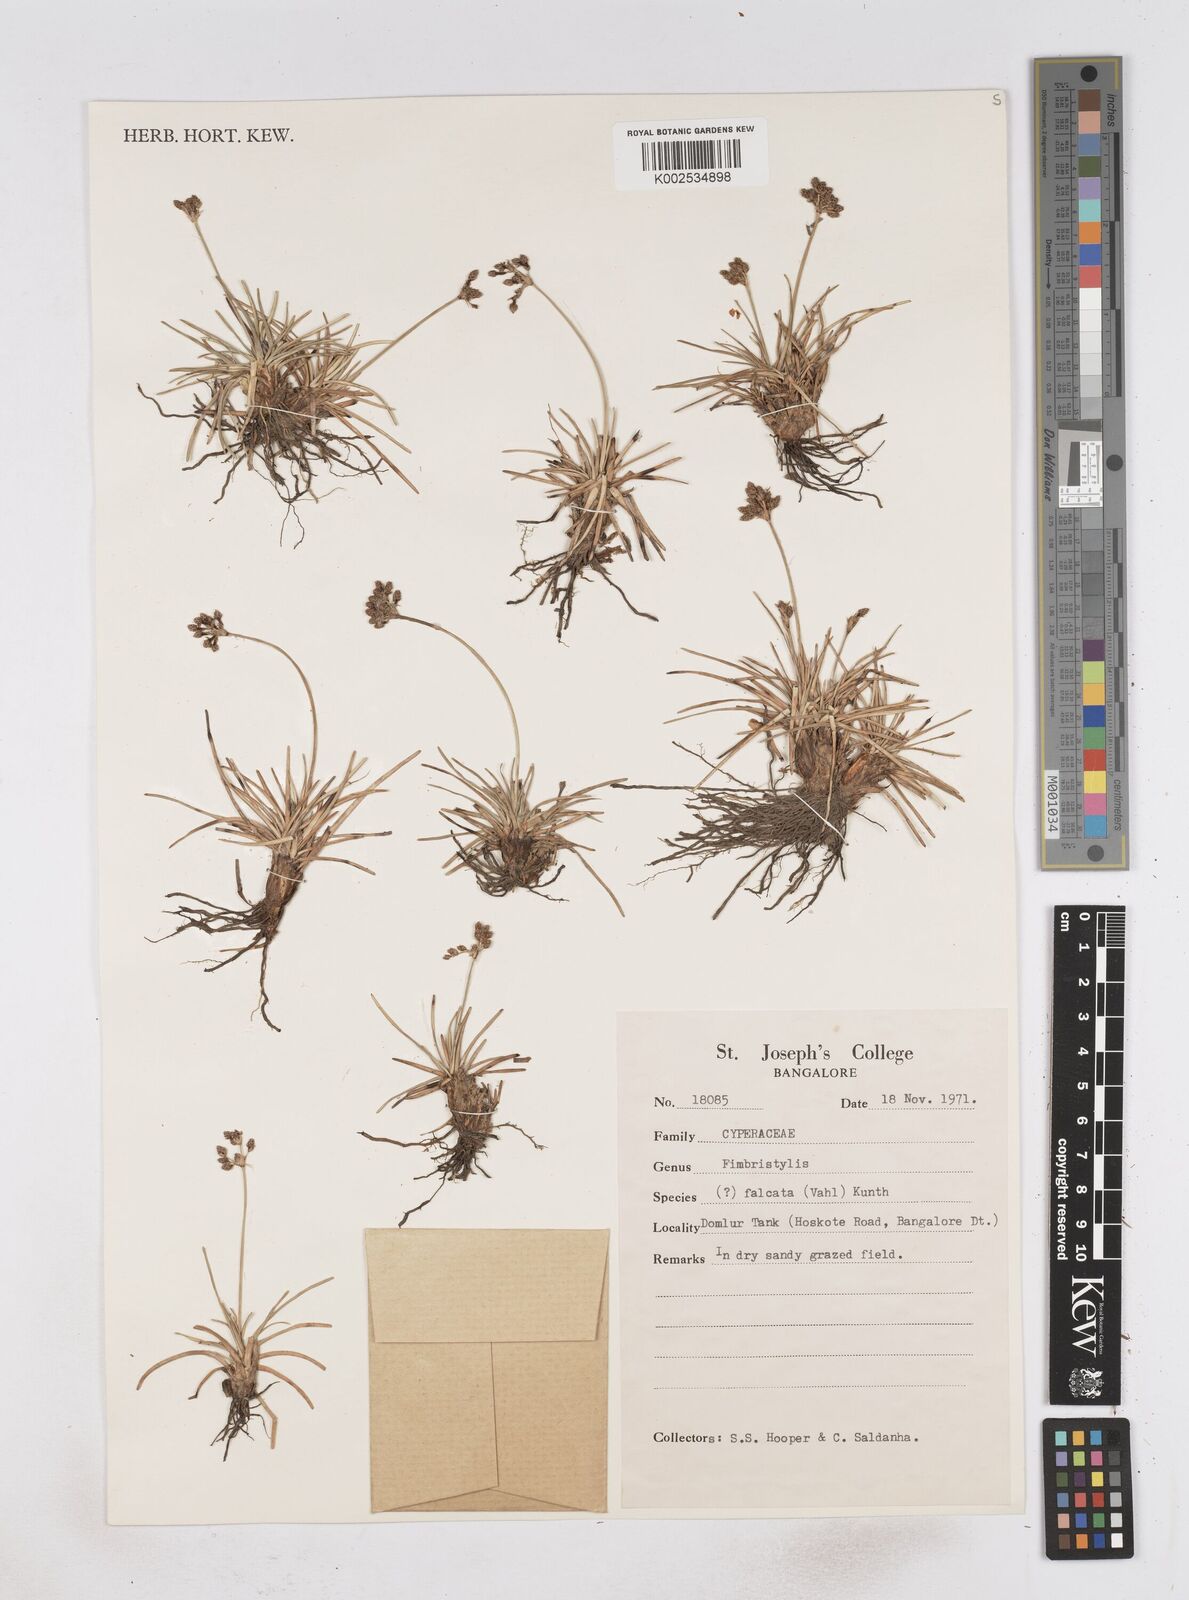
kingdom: Plantae
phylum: Tracheophyta
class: Liliopsida
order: Poales
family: Cyperaceae
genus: Fimbristylis
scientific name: Fimbristylis falcata
